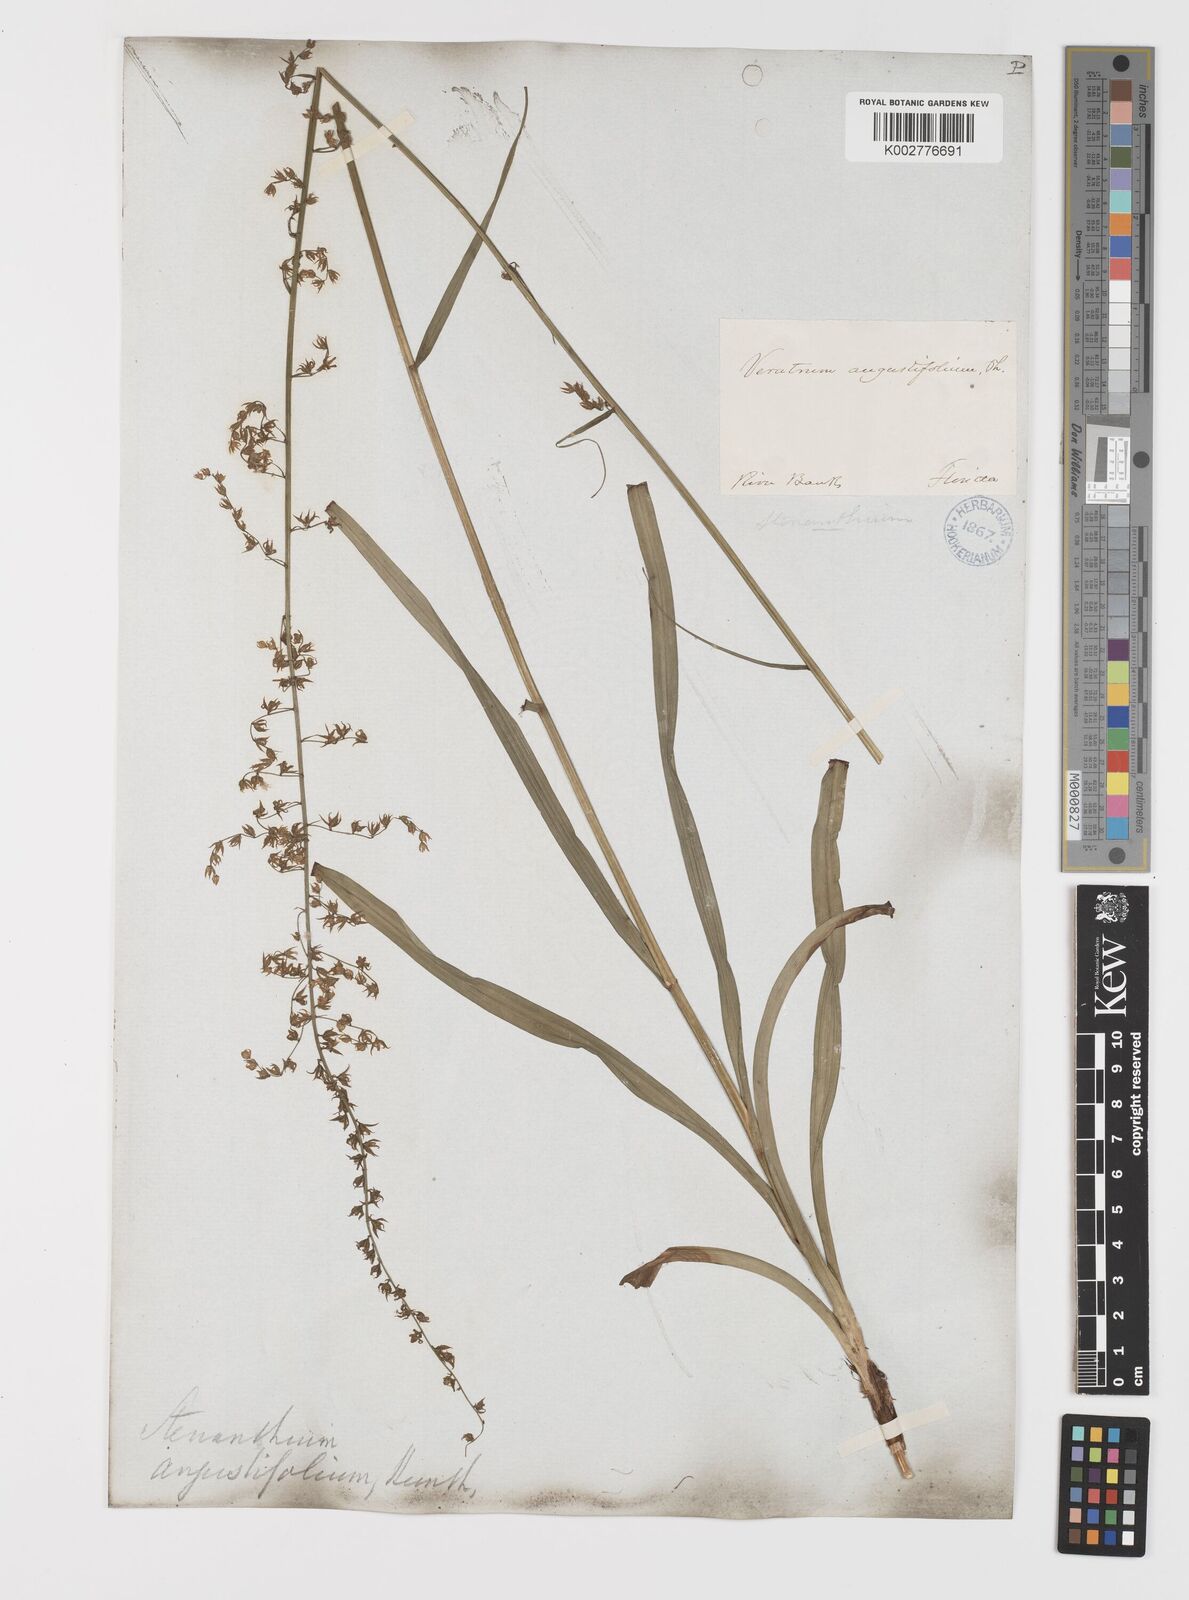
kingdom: Plantae
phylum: Tracheophyta
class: Liliopsida
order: Liliales
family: Melanthiaceae
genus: Stenanthium
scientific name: Stenanthium gramineum
